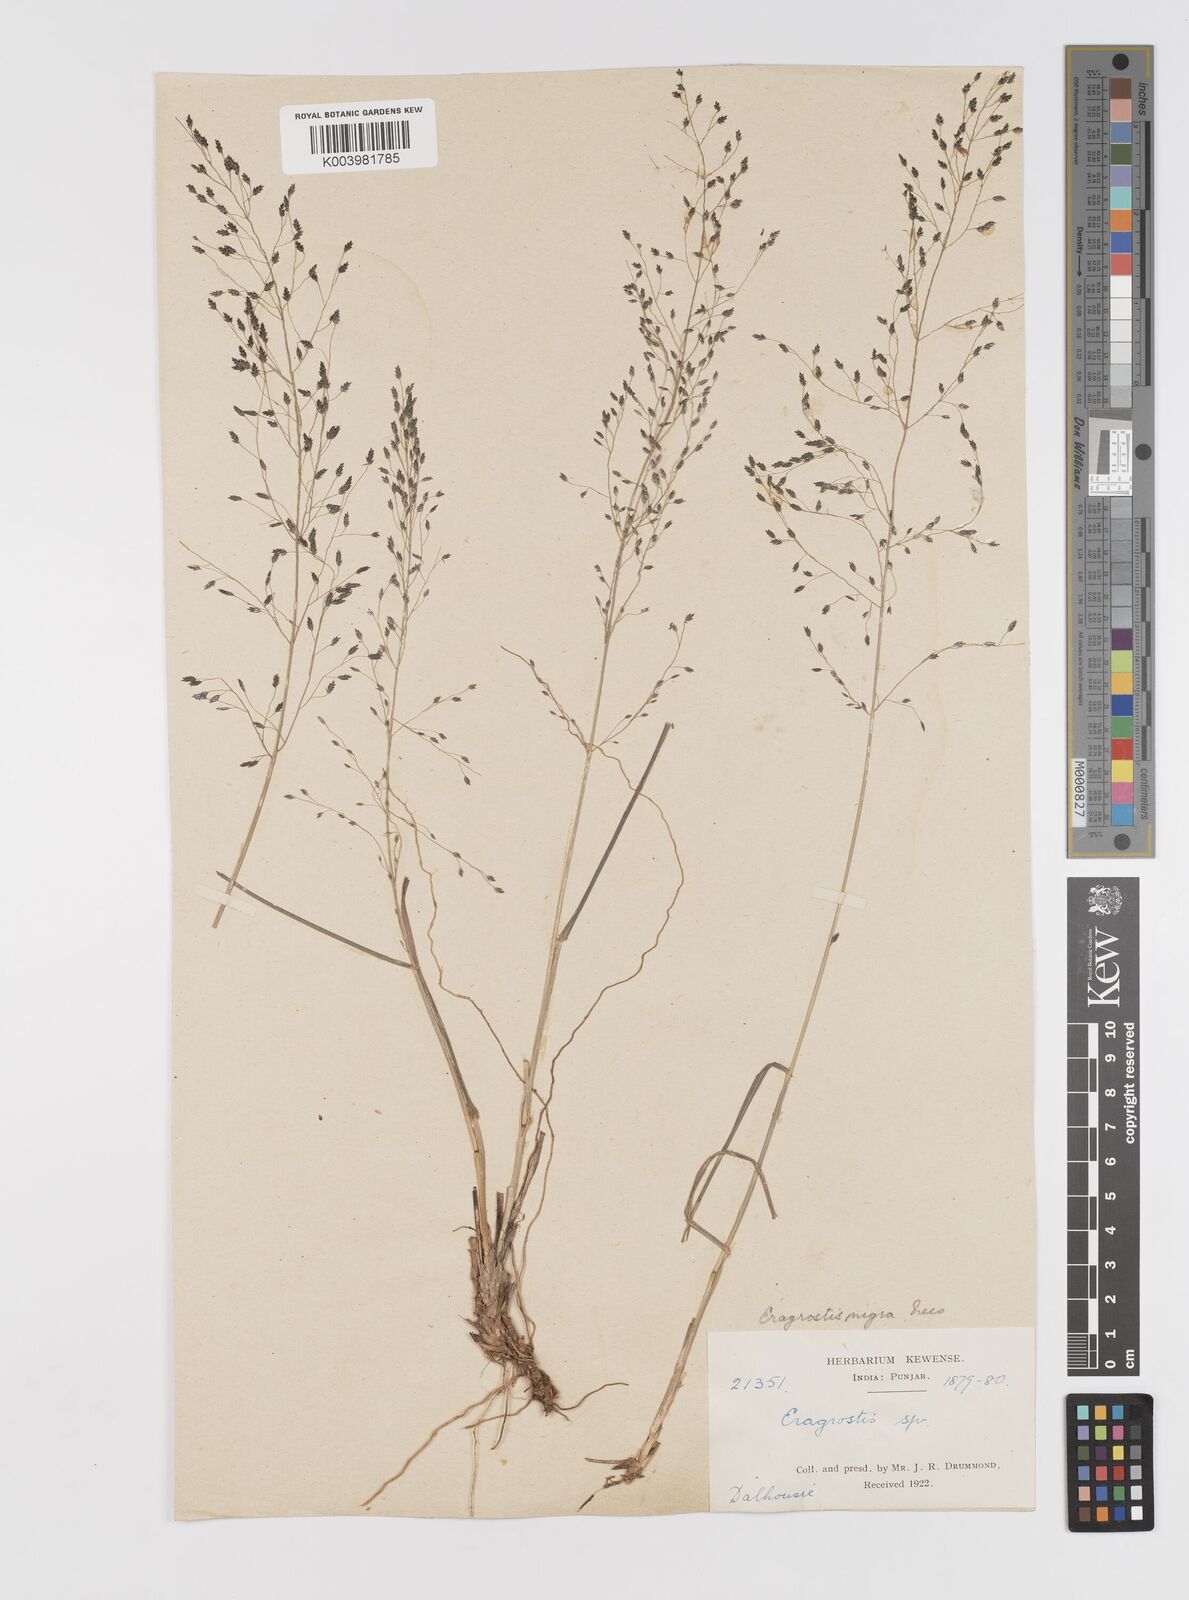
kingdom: Plantae
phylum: Tracheophyta
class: Liliopsida
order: Poales
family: Poaceae
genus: Eragrostis
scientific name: Eragrostis nigra
